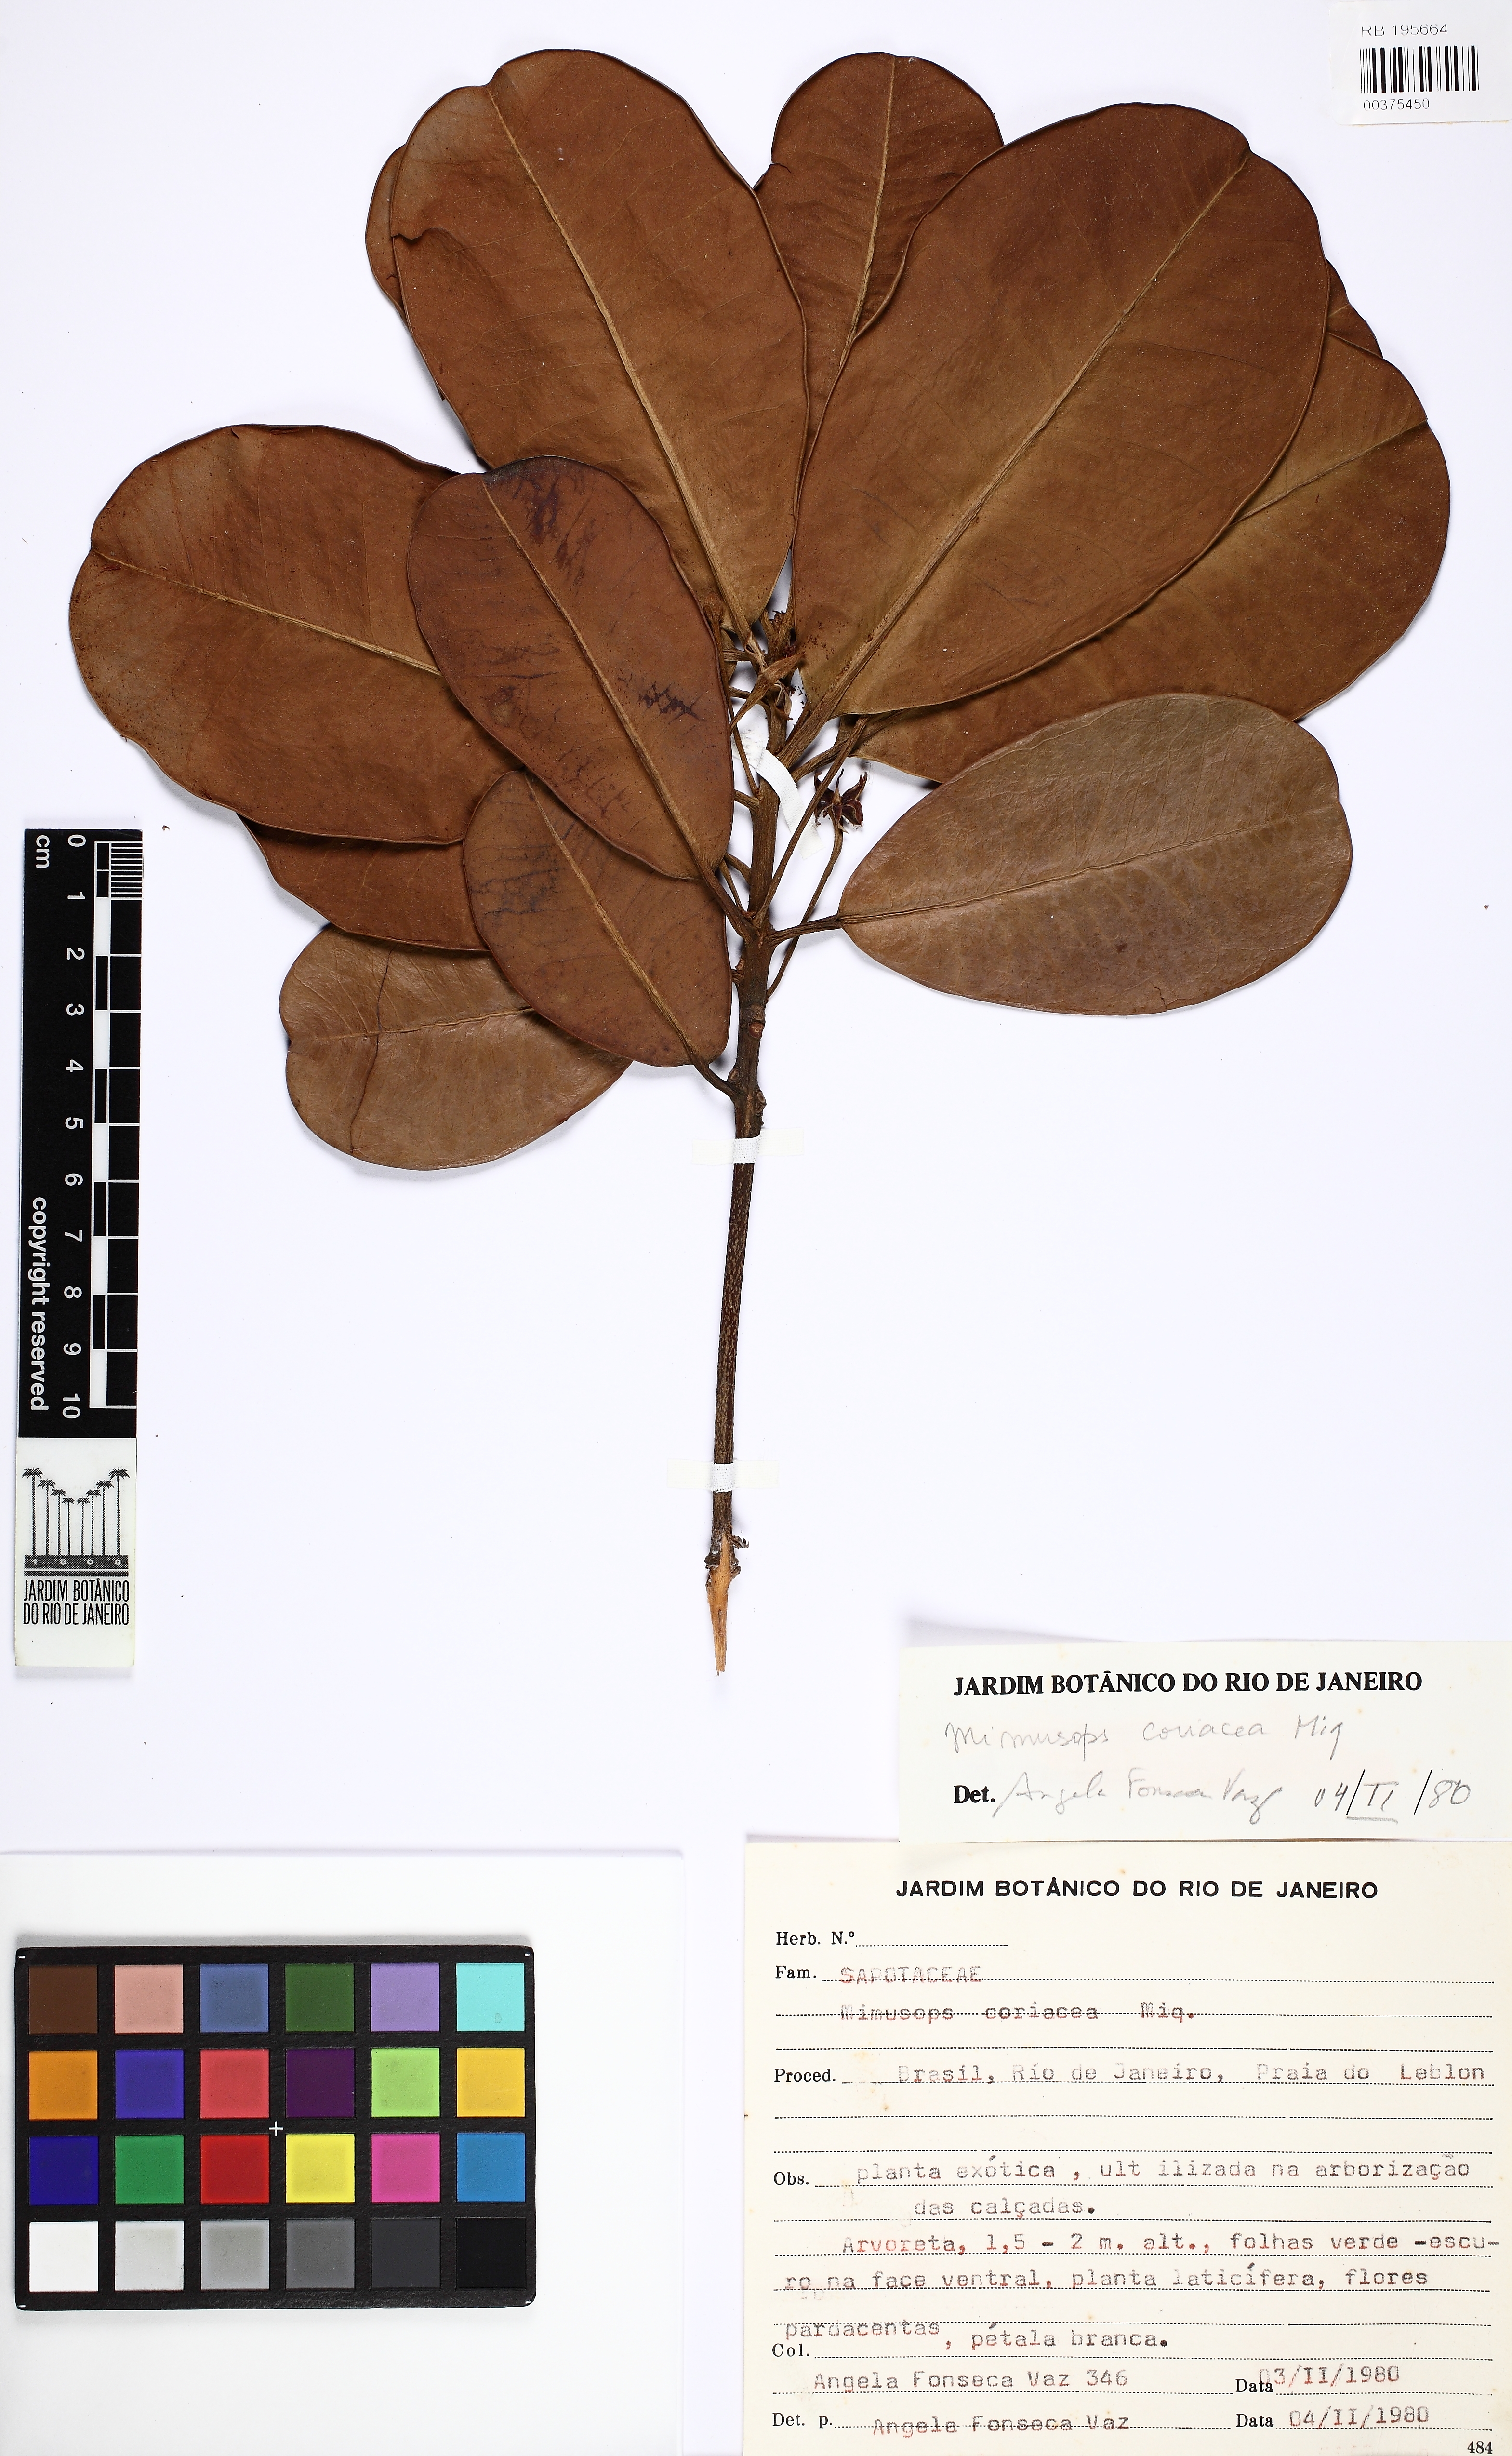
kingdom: Plantae
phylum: Tracheophyta
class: Magnoliopsida
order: Ericales
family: Sapotaceae
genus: Mimusops
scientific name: Mimusops coriacea
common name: Mimusops
